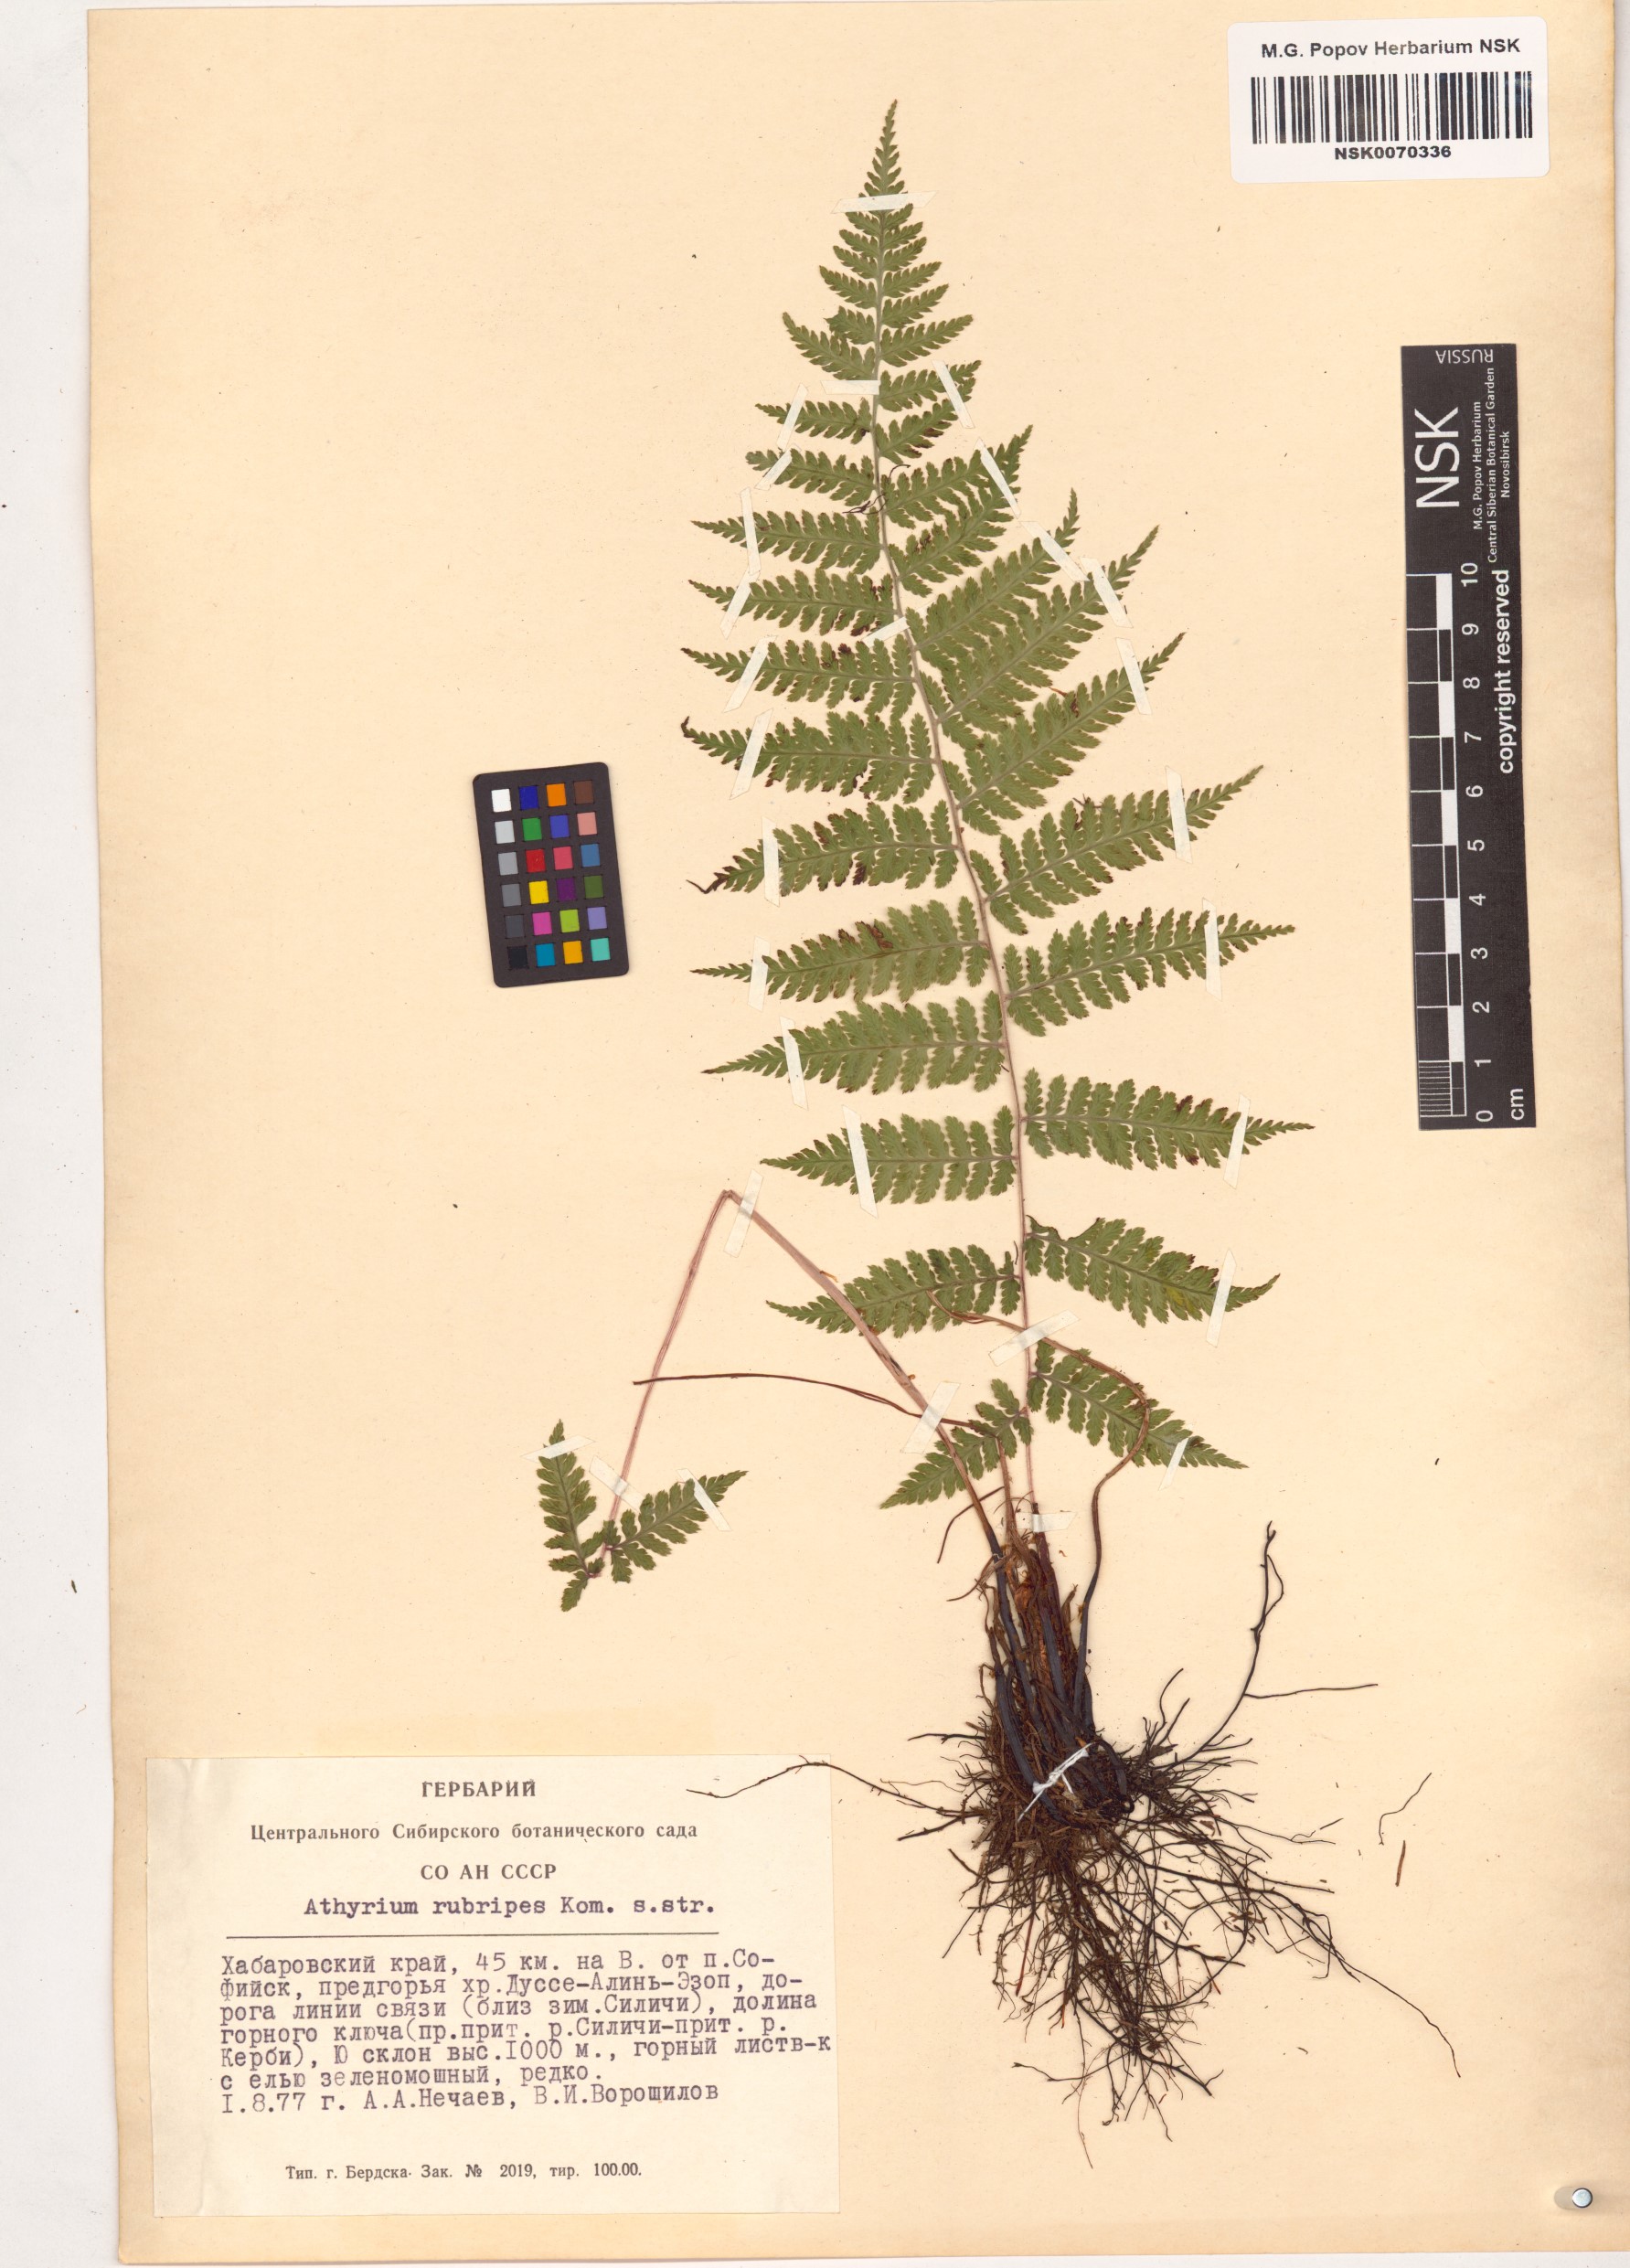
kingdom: Plantae
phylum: Tracheophyta
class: Polypodiopsida
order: Polypodiales
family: Athyriaceae
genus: Athyrium
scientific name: Athyrium rubripes
